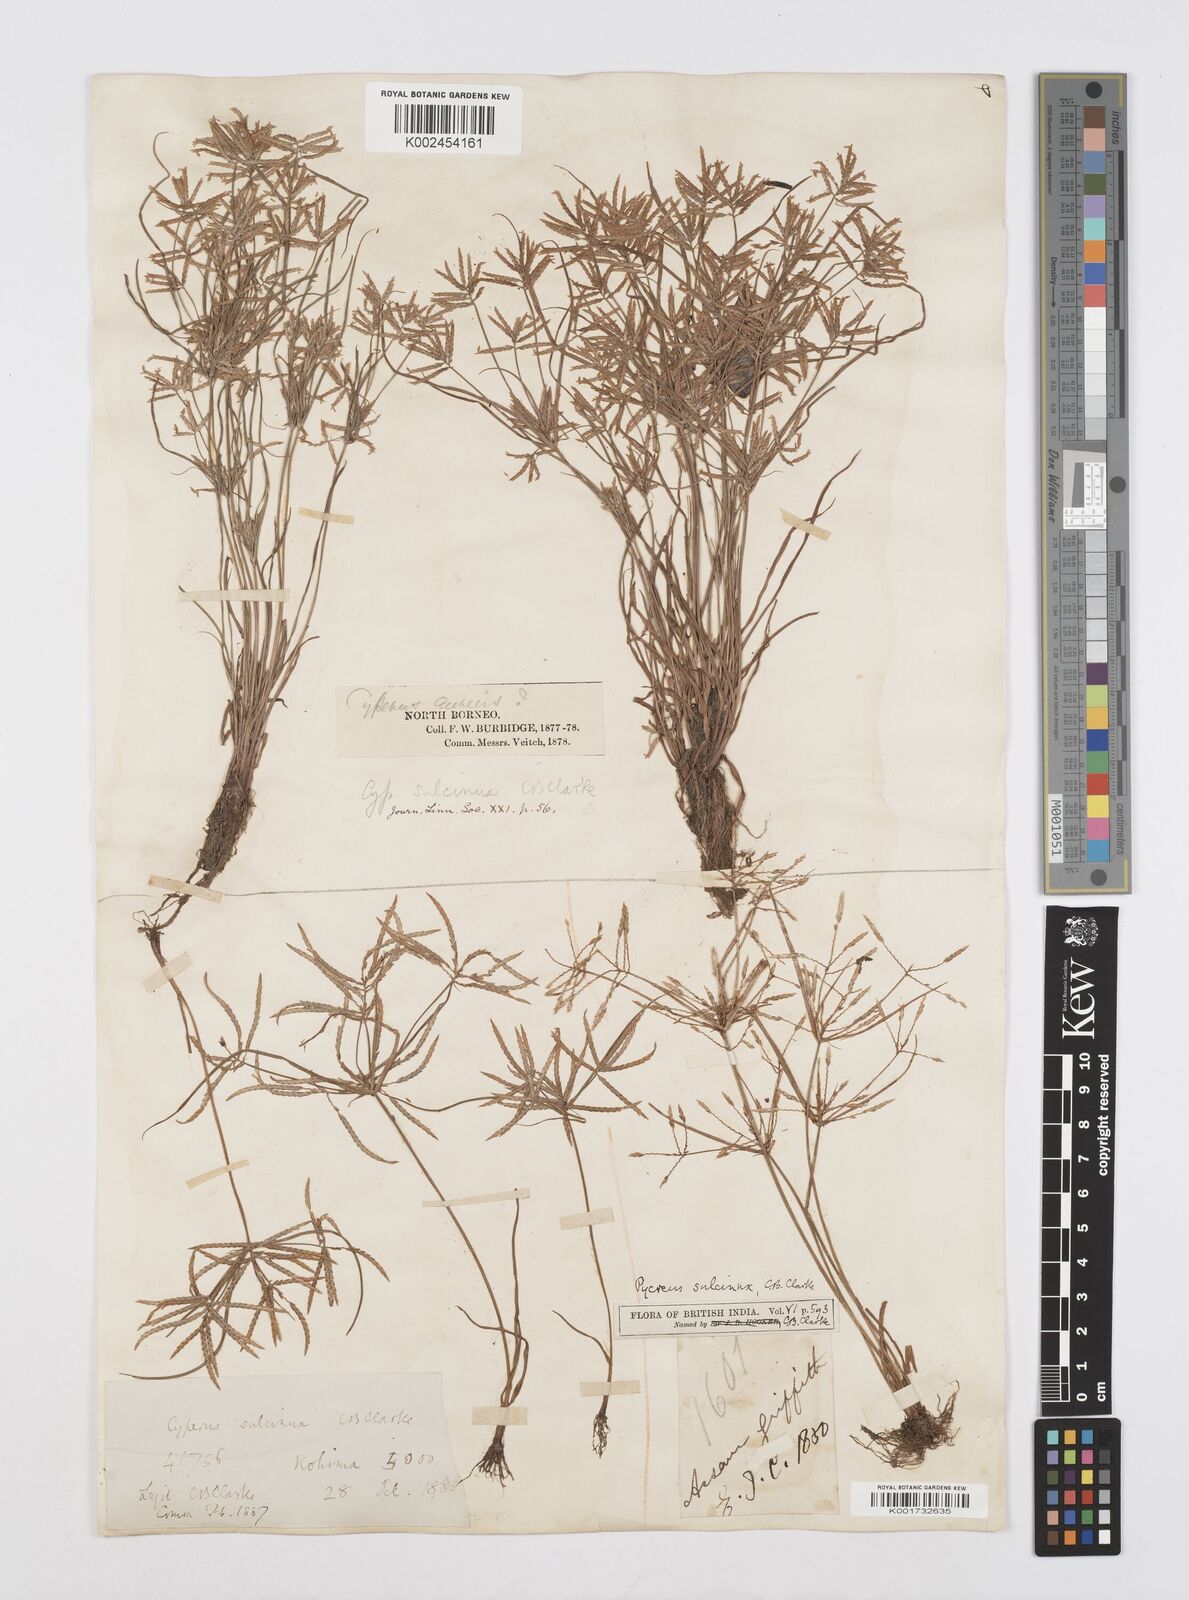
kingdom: Plantae
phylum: Tracheophyta
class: Liliopsida
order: Poales
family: Cyperaceae
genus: Cyperus
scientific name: Cyperus sulcinux
